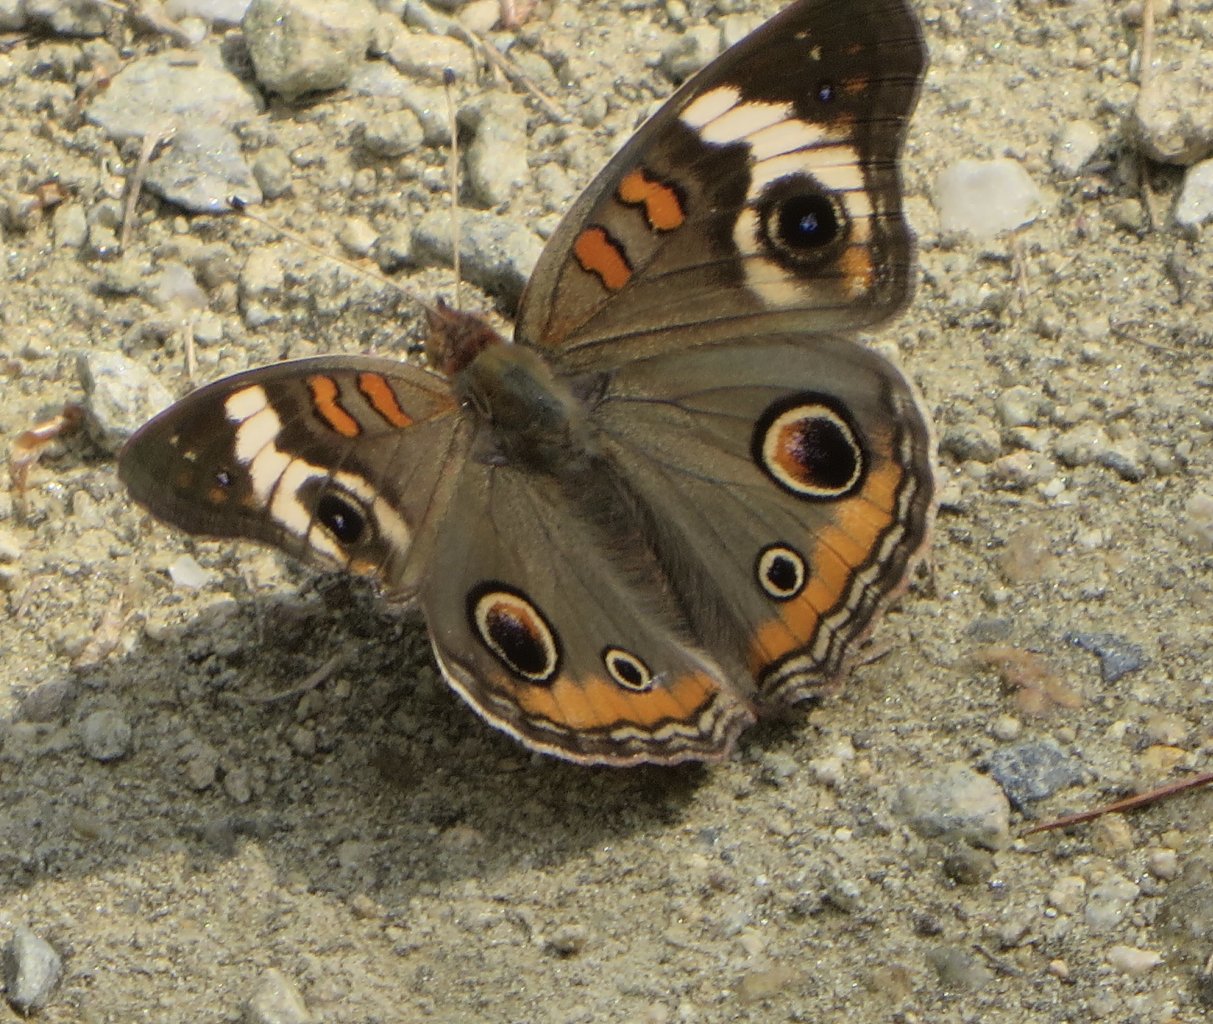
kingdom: Animalia
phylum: Arthropoda
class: Insecta
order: Lepidoptera
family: Nymphalidae
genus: Junonia
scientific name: Junonia coenia
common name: Common Buckeye
